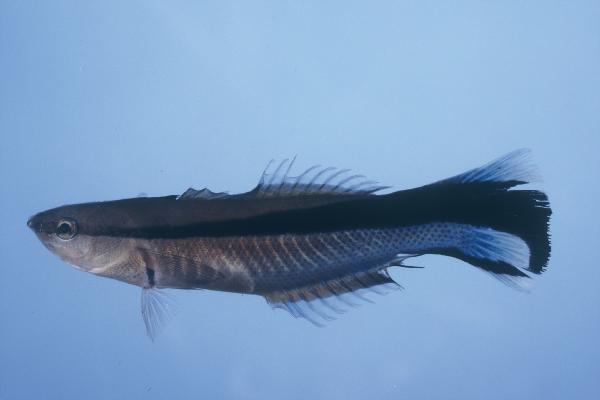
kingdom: Animalia
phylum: Chordata
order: Perciformes
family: Labridae
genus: Labroides
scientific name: Labroides dimidiatus
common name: Blue diesel wrasse
